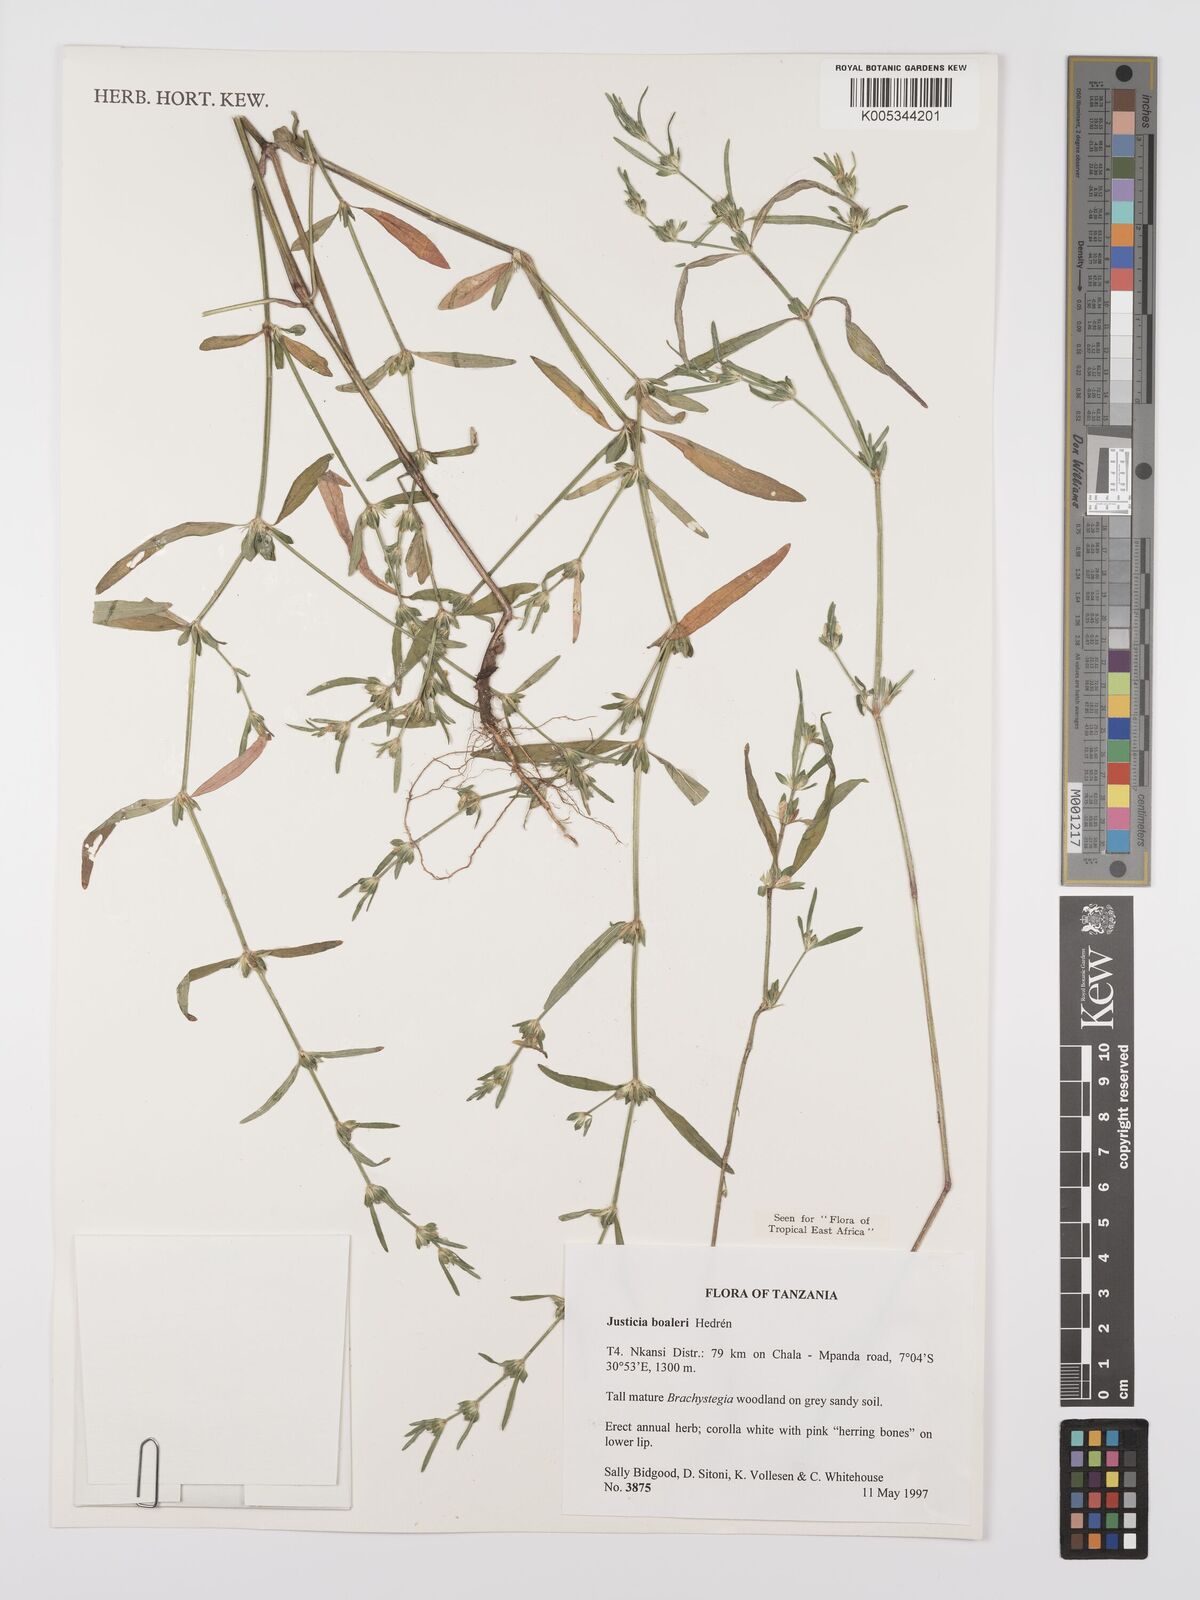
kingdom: Plantae
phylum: Tracheophyta
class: Magnoliopsida
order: Lamiales
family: Acanthaceae
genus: Justicia
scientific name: Justicia boaleri
